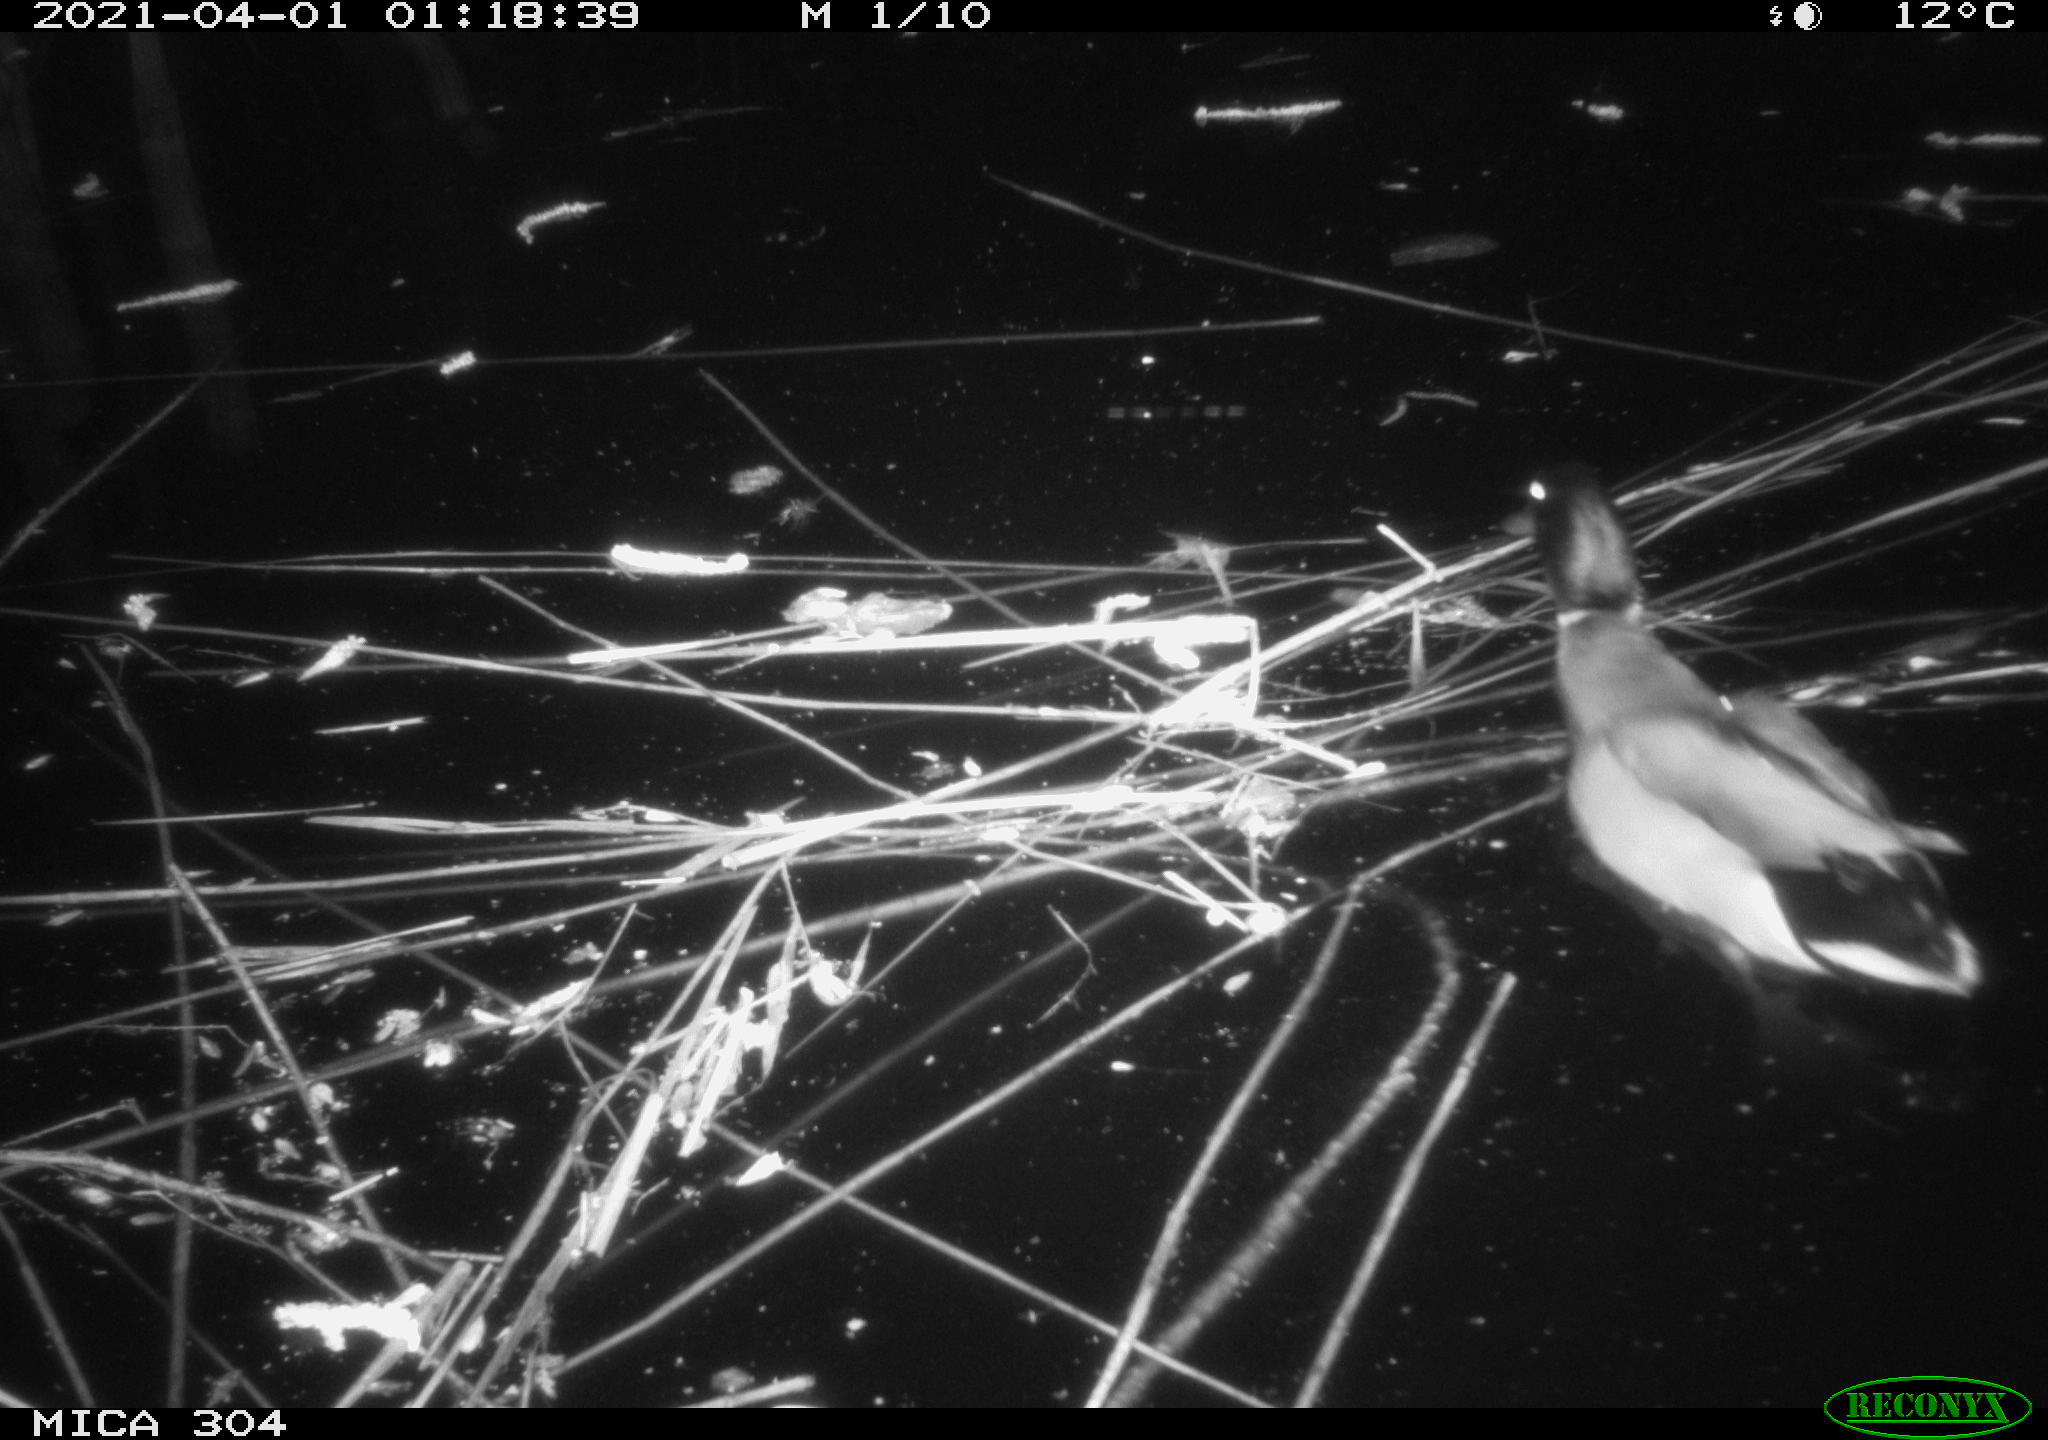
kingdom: Animalia
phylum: Chordata
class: Aves
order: Anseriformes
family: Anatidae
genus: Anas
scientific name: Anas platyrhynchos
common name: Mallard
